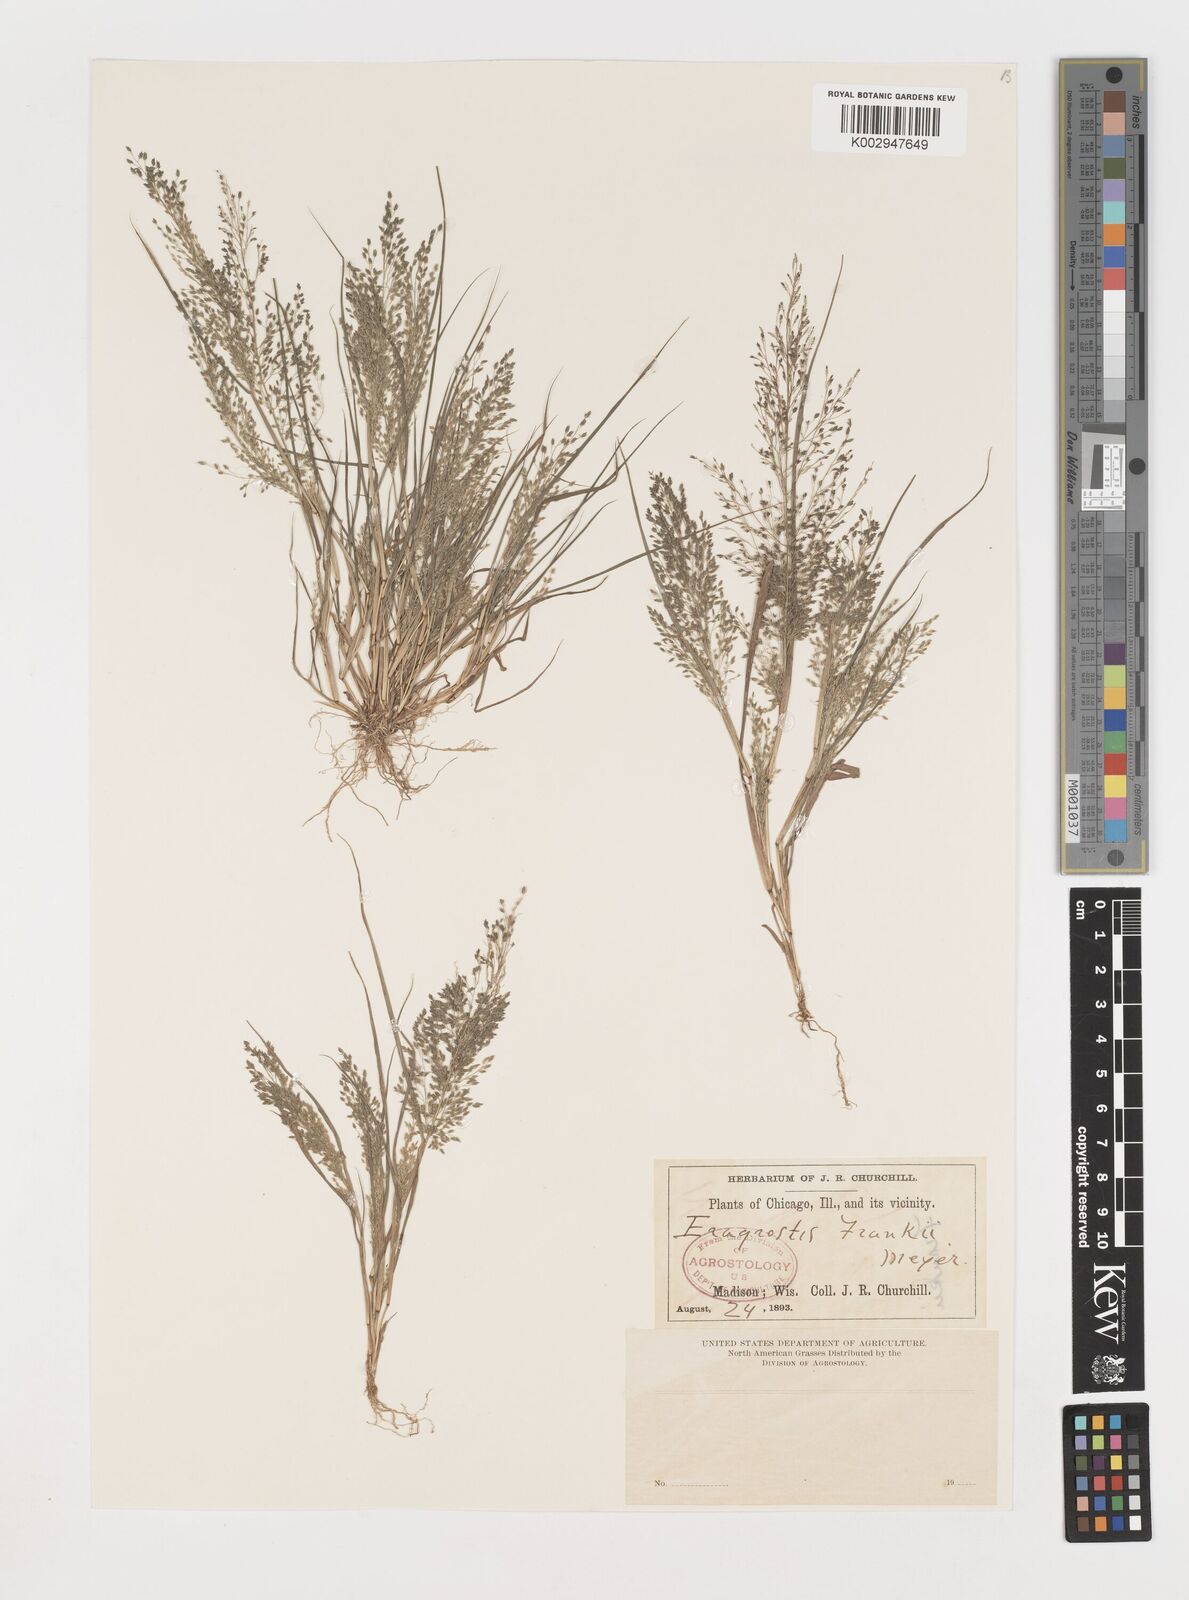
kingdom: Plantae
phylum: Tracheophyta
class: Liliopsida
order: Poales
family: Poaceae
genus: Eragrostis
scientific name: Eragrostis frankii
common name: Frank's lovegrass
